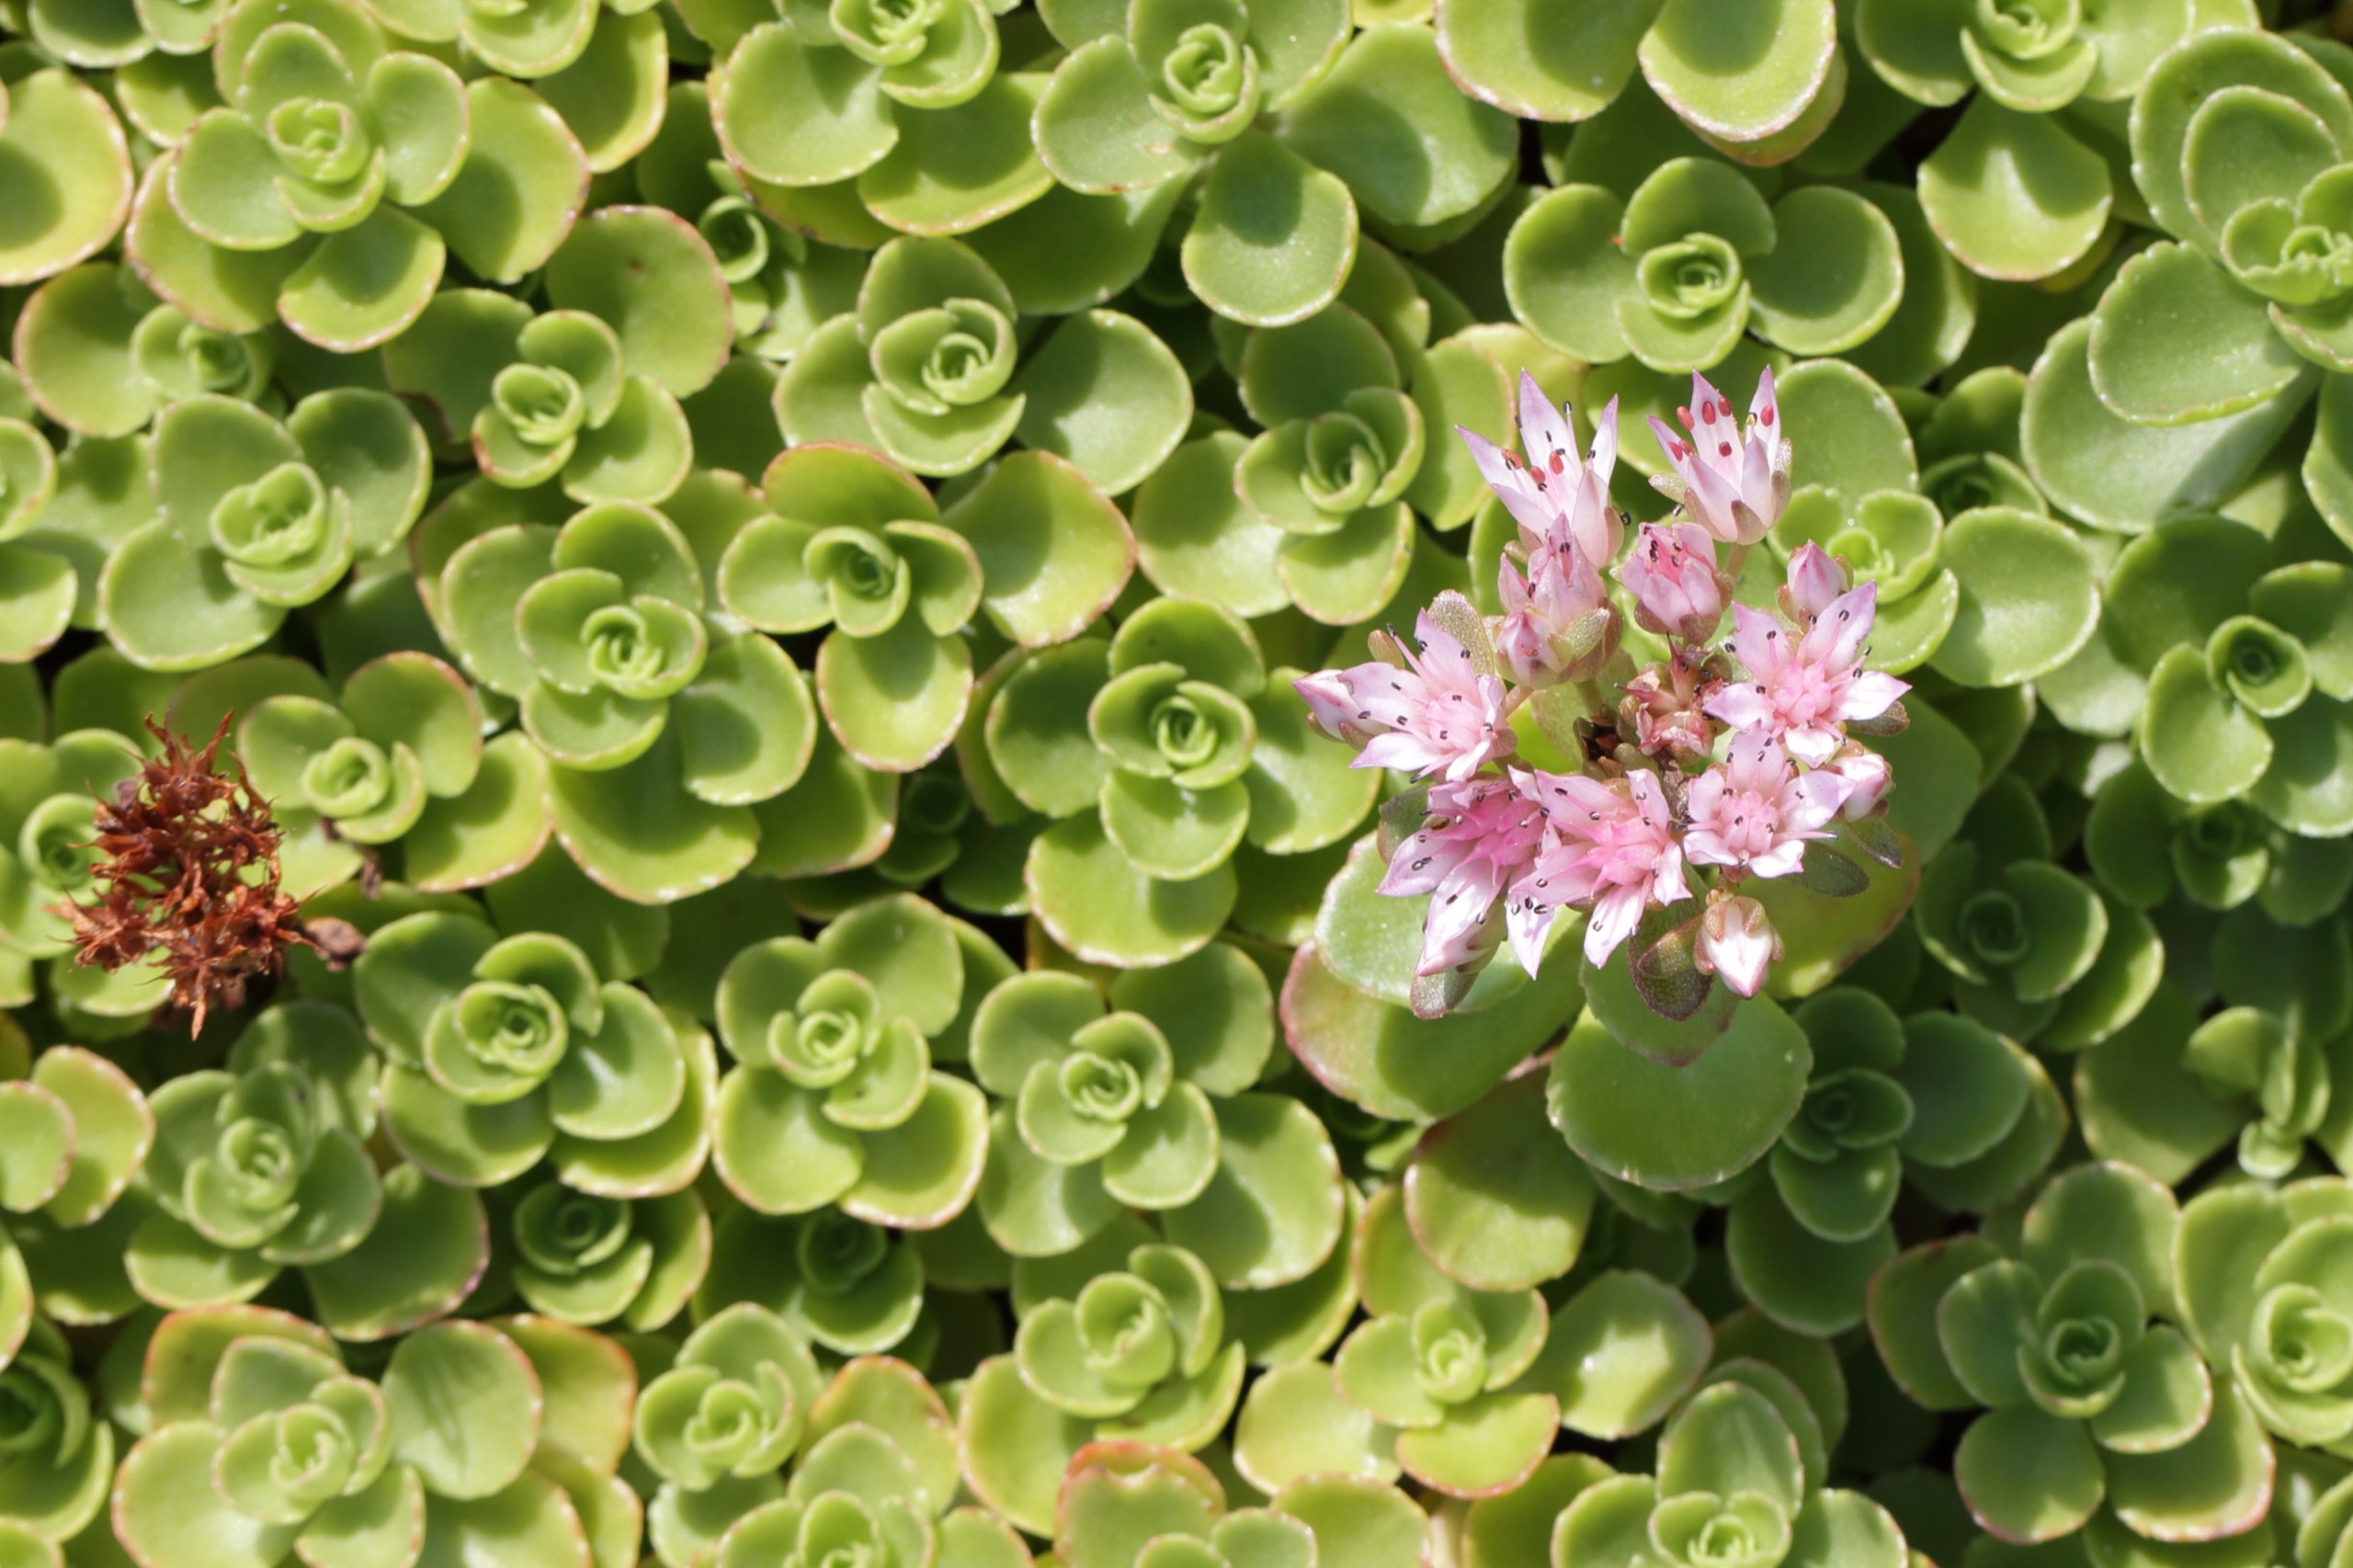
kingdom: Plantae
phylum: Tracheophyta
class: Magnoliopsida
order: Saxifragales
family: Crassulaceae
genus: Phedimus
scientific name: Phedimus spurius
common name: Rød stenurt
